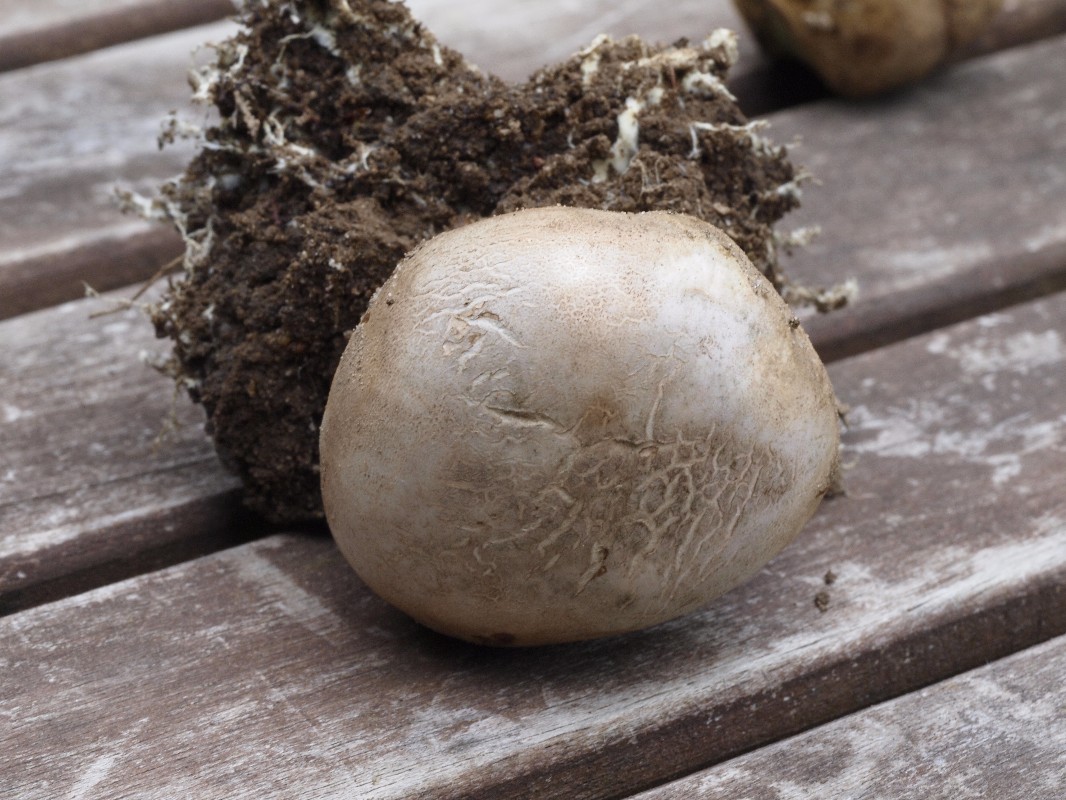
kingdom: Fungi
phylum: Basidiomycota
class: Agaricomycetes
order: Boletales
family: Sclerodermataceae
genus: Scleroderma
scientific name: Scleroderma bovista
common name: bovist-bruskbold
